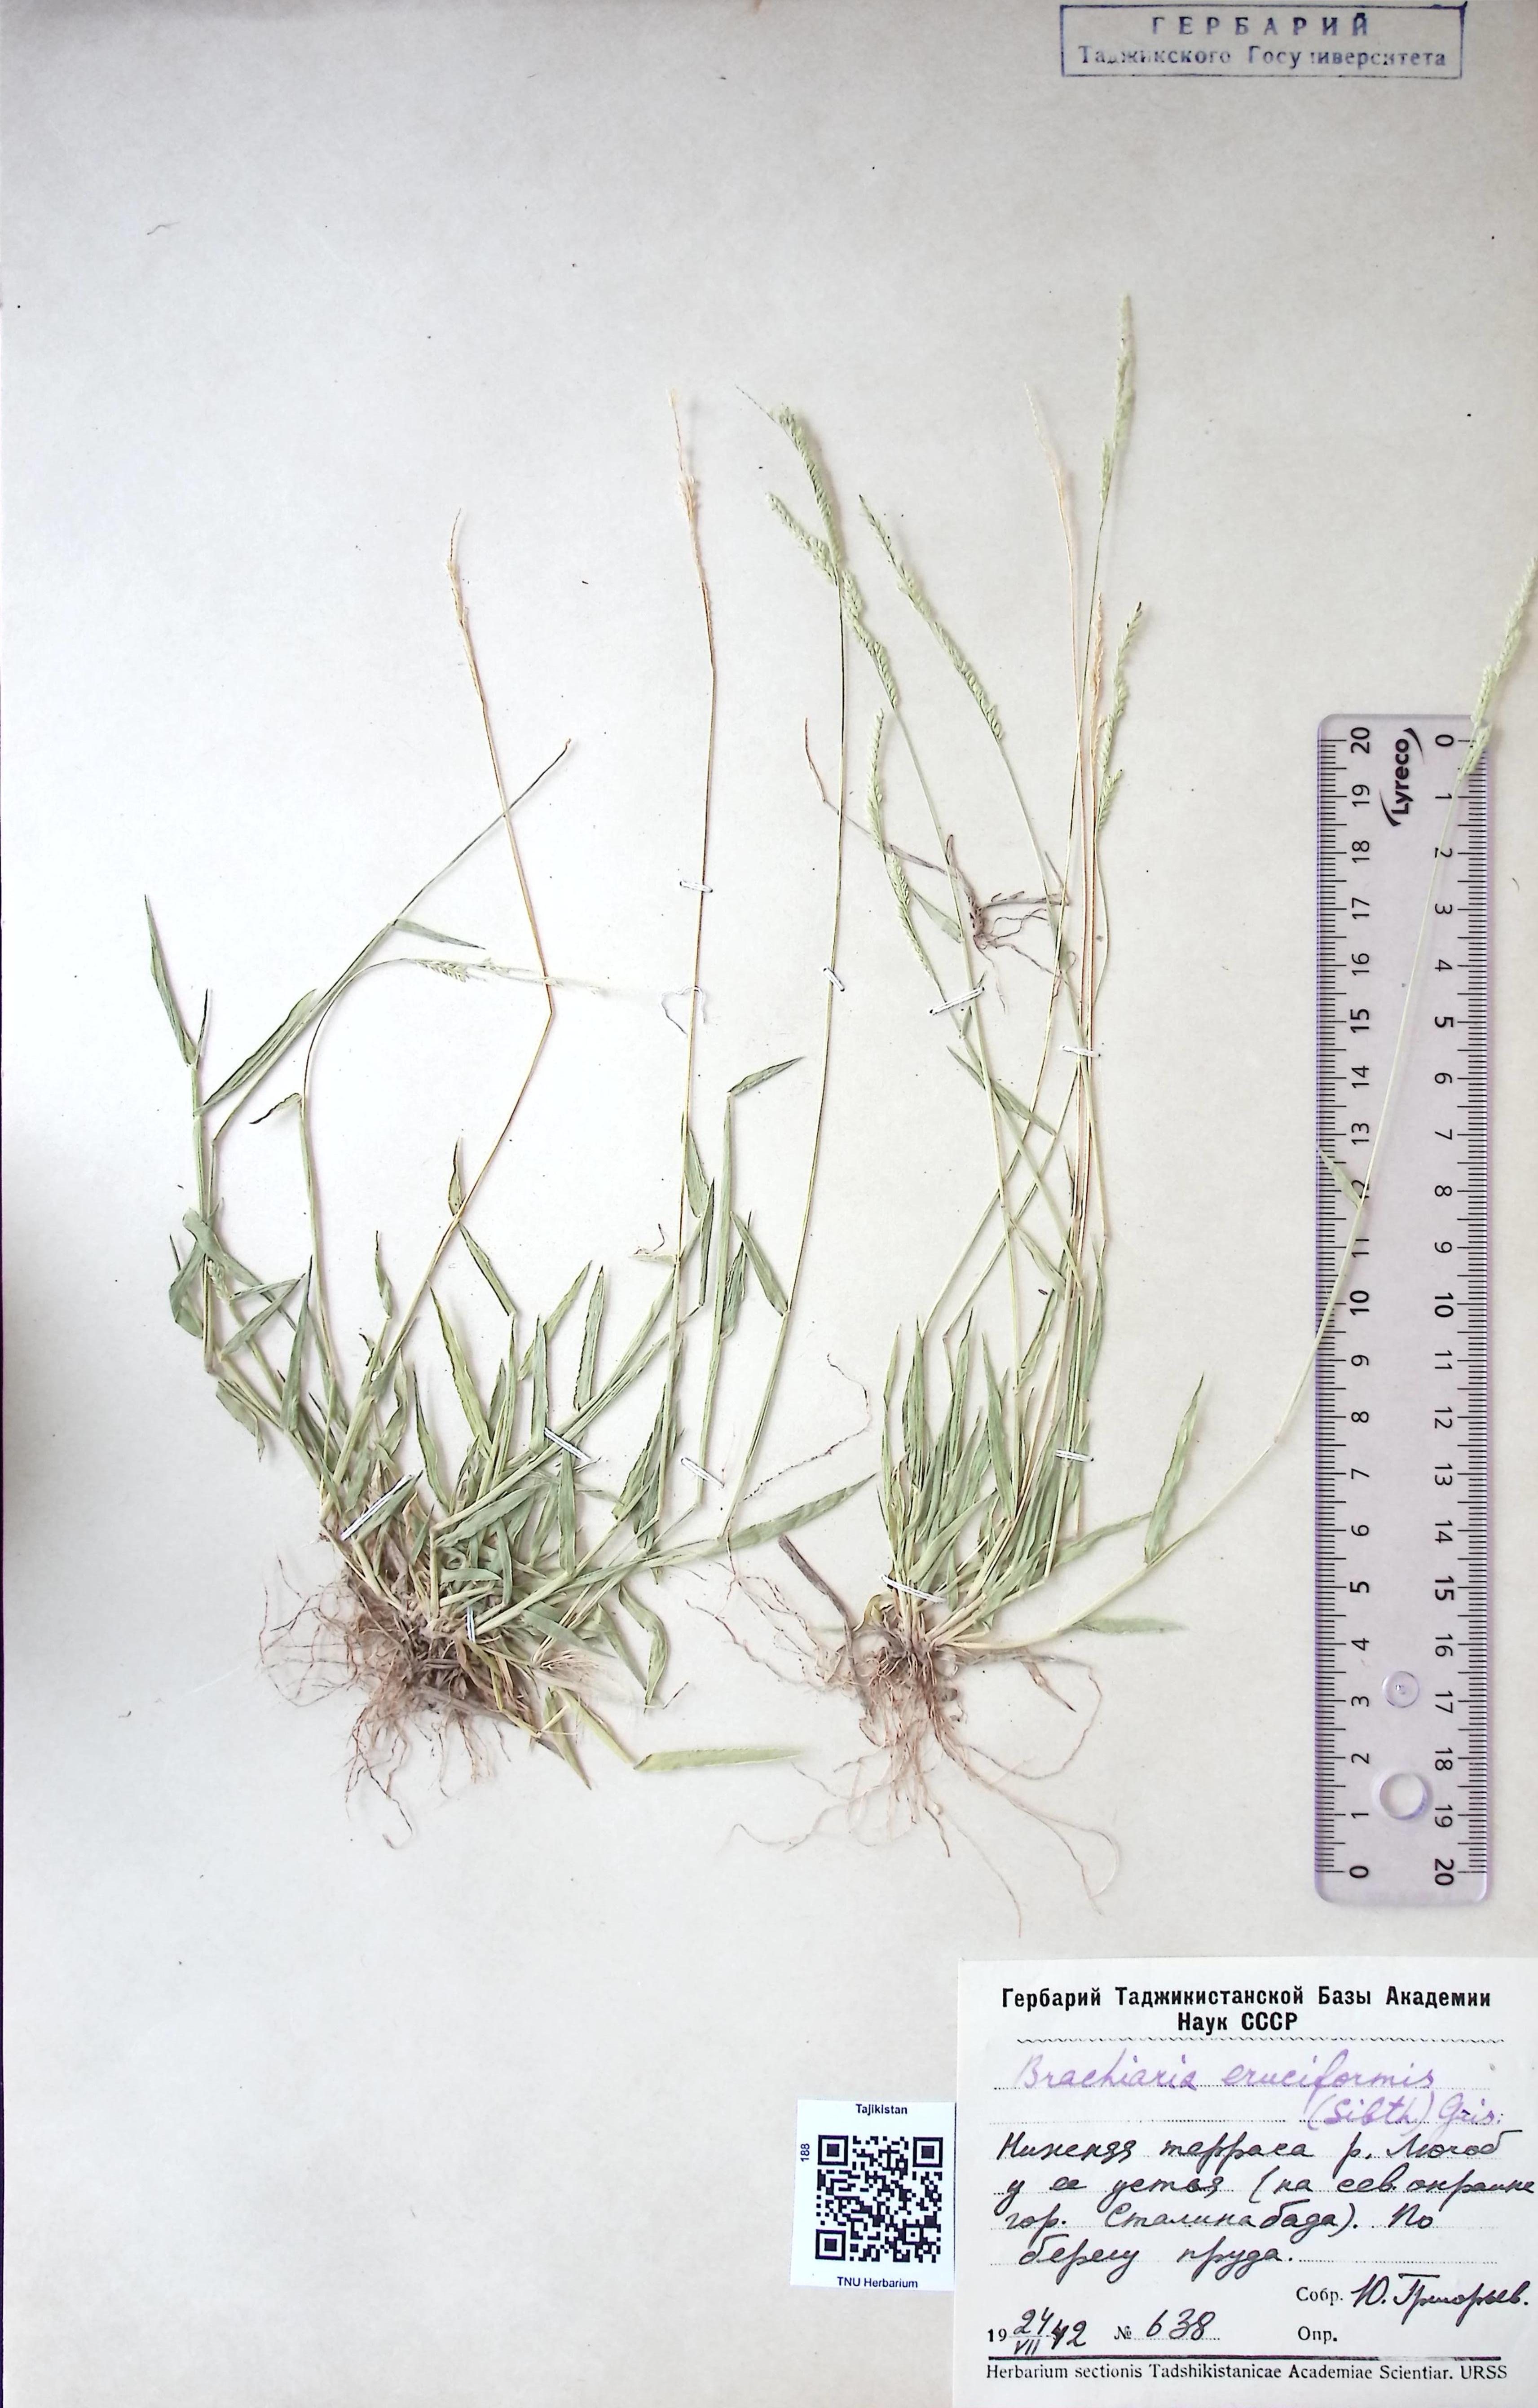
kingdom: Plantae
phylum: Tracheophyta
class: Polypodiopsida
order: Cyatheales
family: Cyatheaceae
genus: Alsophila
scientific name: Alsophila dealbata
